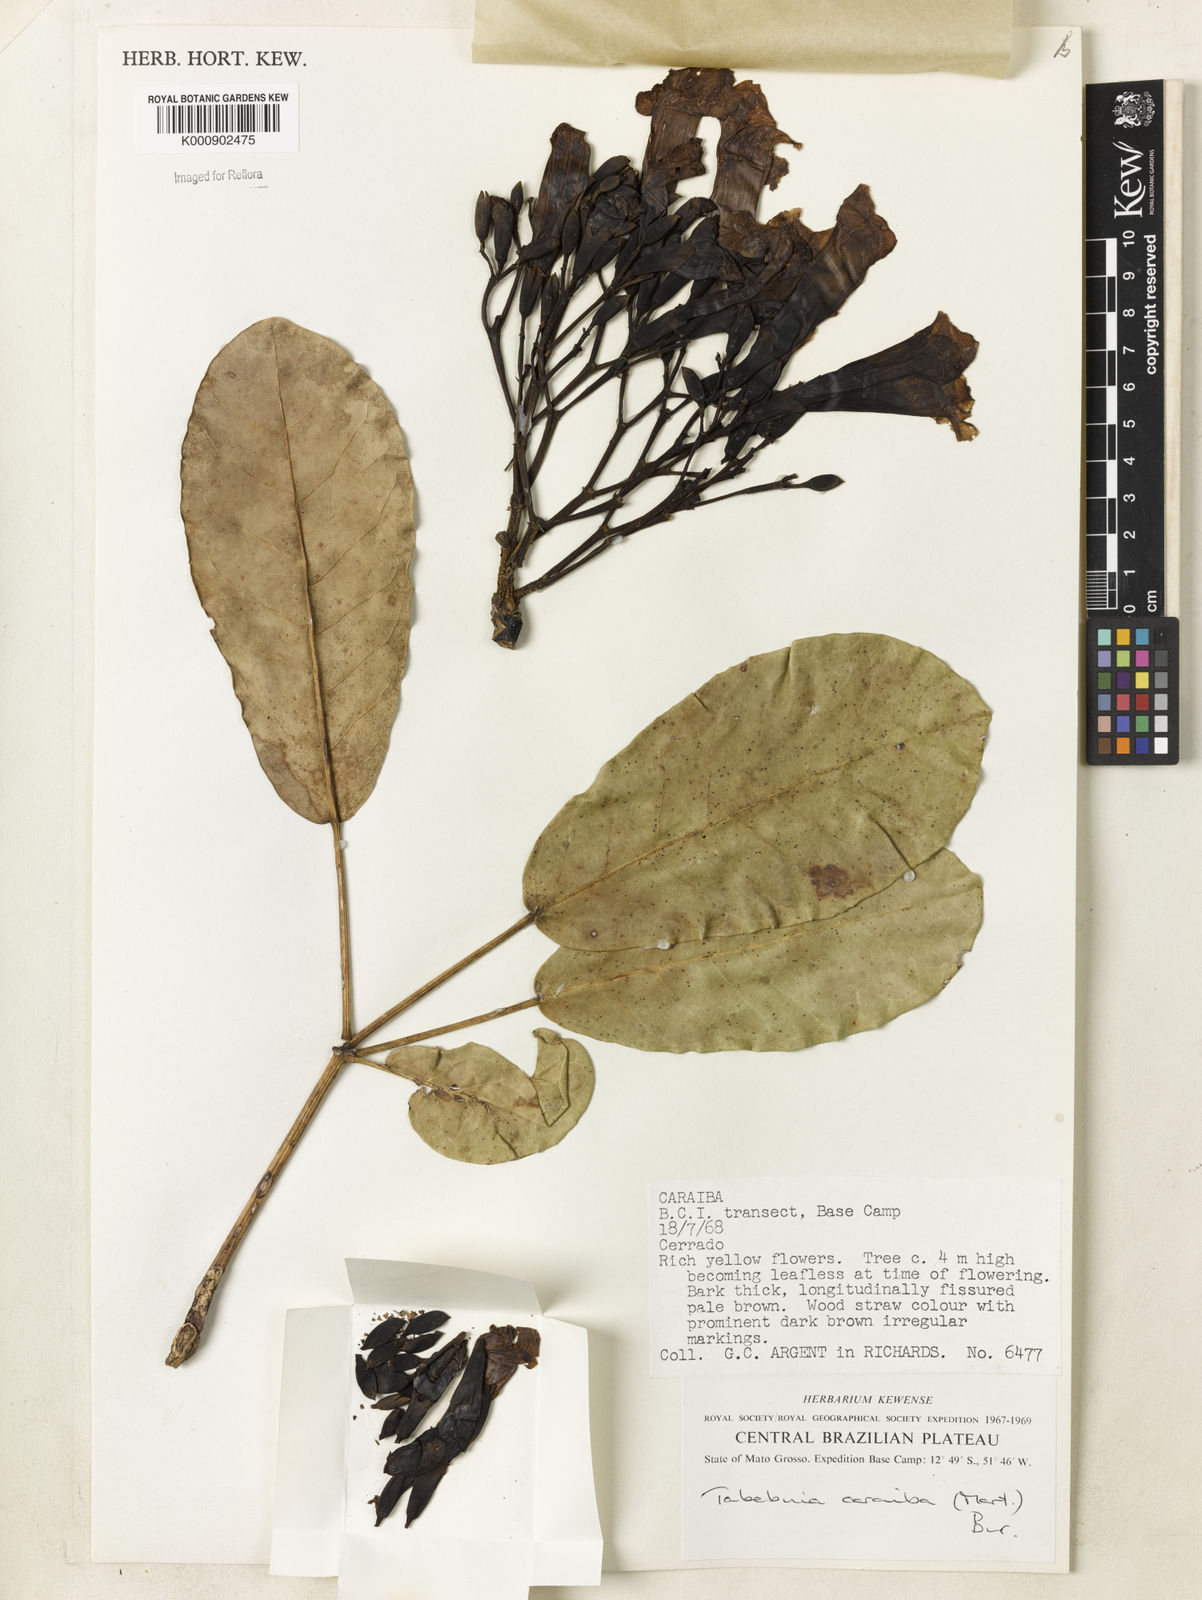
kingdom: Plantae
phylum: Tracheophyta
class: Magnoliopsida
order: Lamiales
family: Bignoniaceae
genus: Tabebuia
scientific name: Tabebuia aurea
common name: Caribbean trumpet-tree
